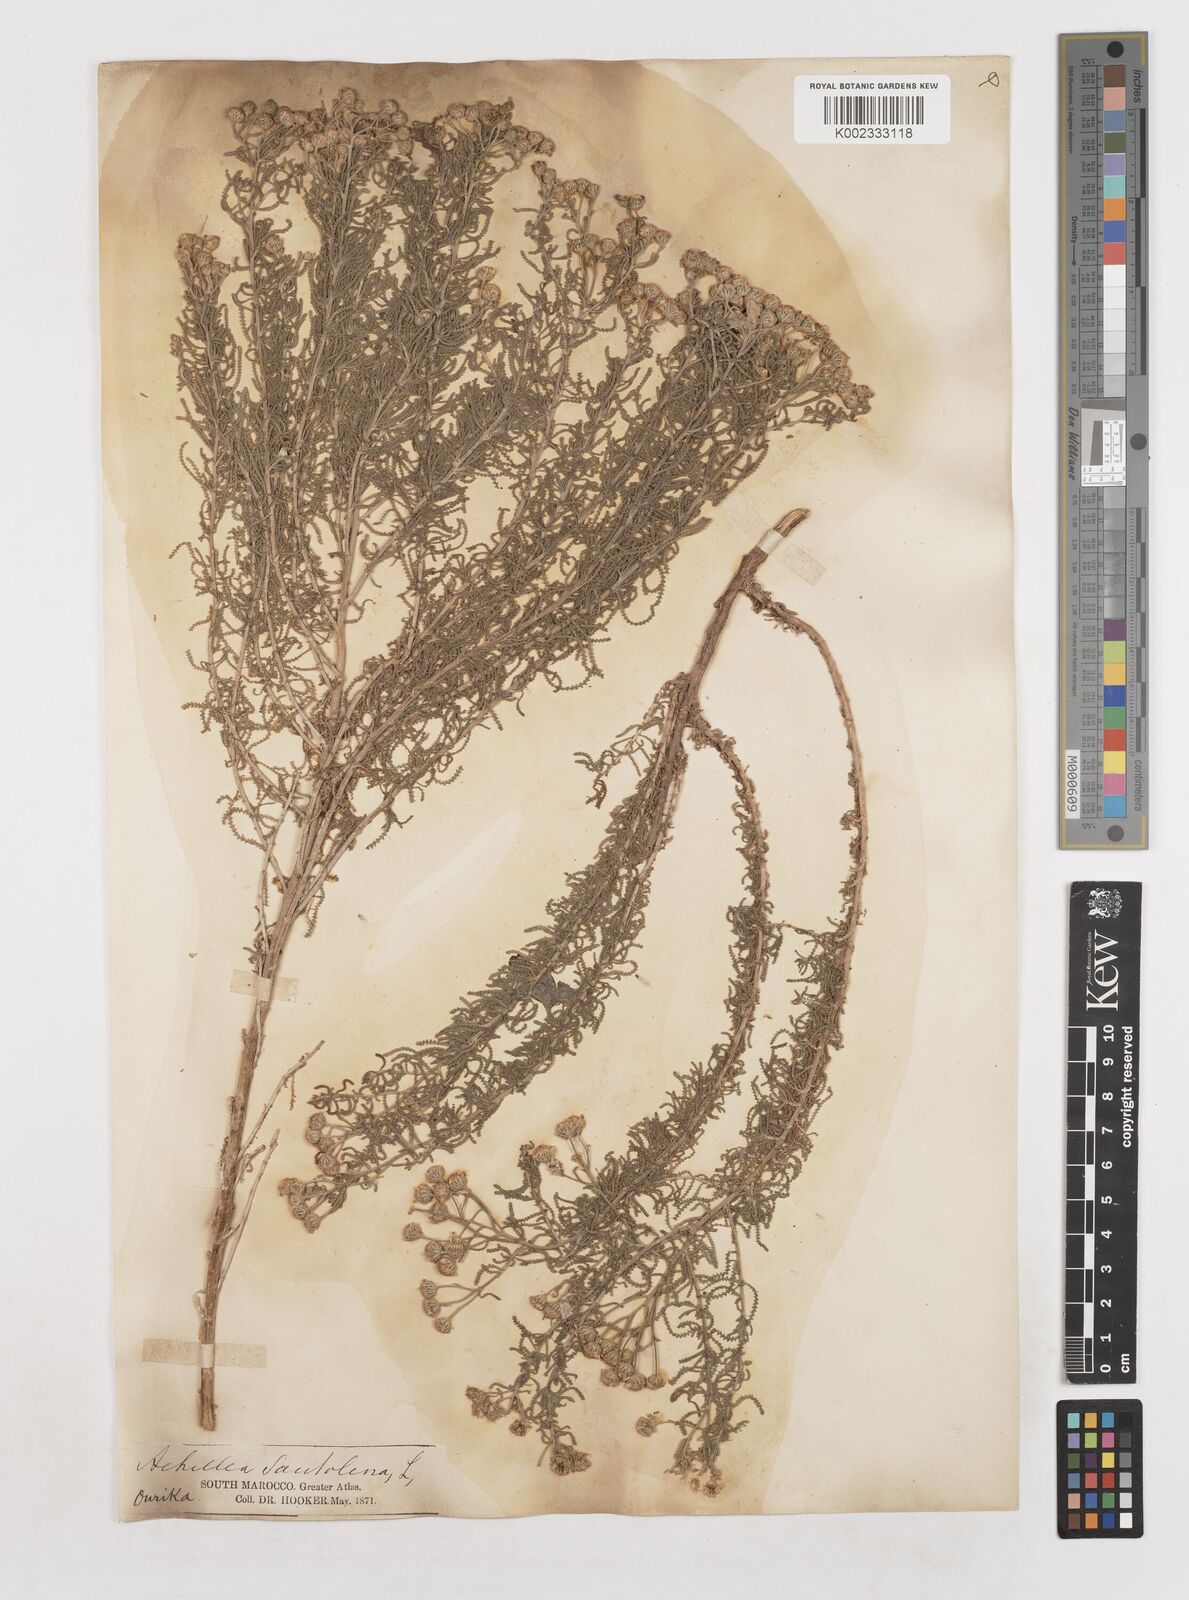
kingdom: Plantae
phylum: Tracheophyta
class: Magnoliopsida
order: Asterales
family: Asteraceae
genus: Achillea
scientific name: Achillea tenuifolia
